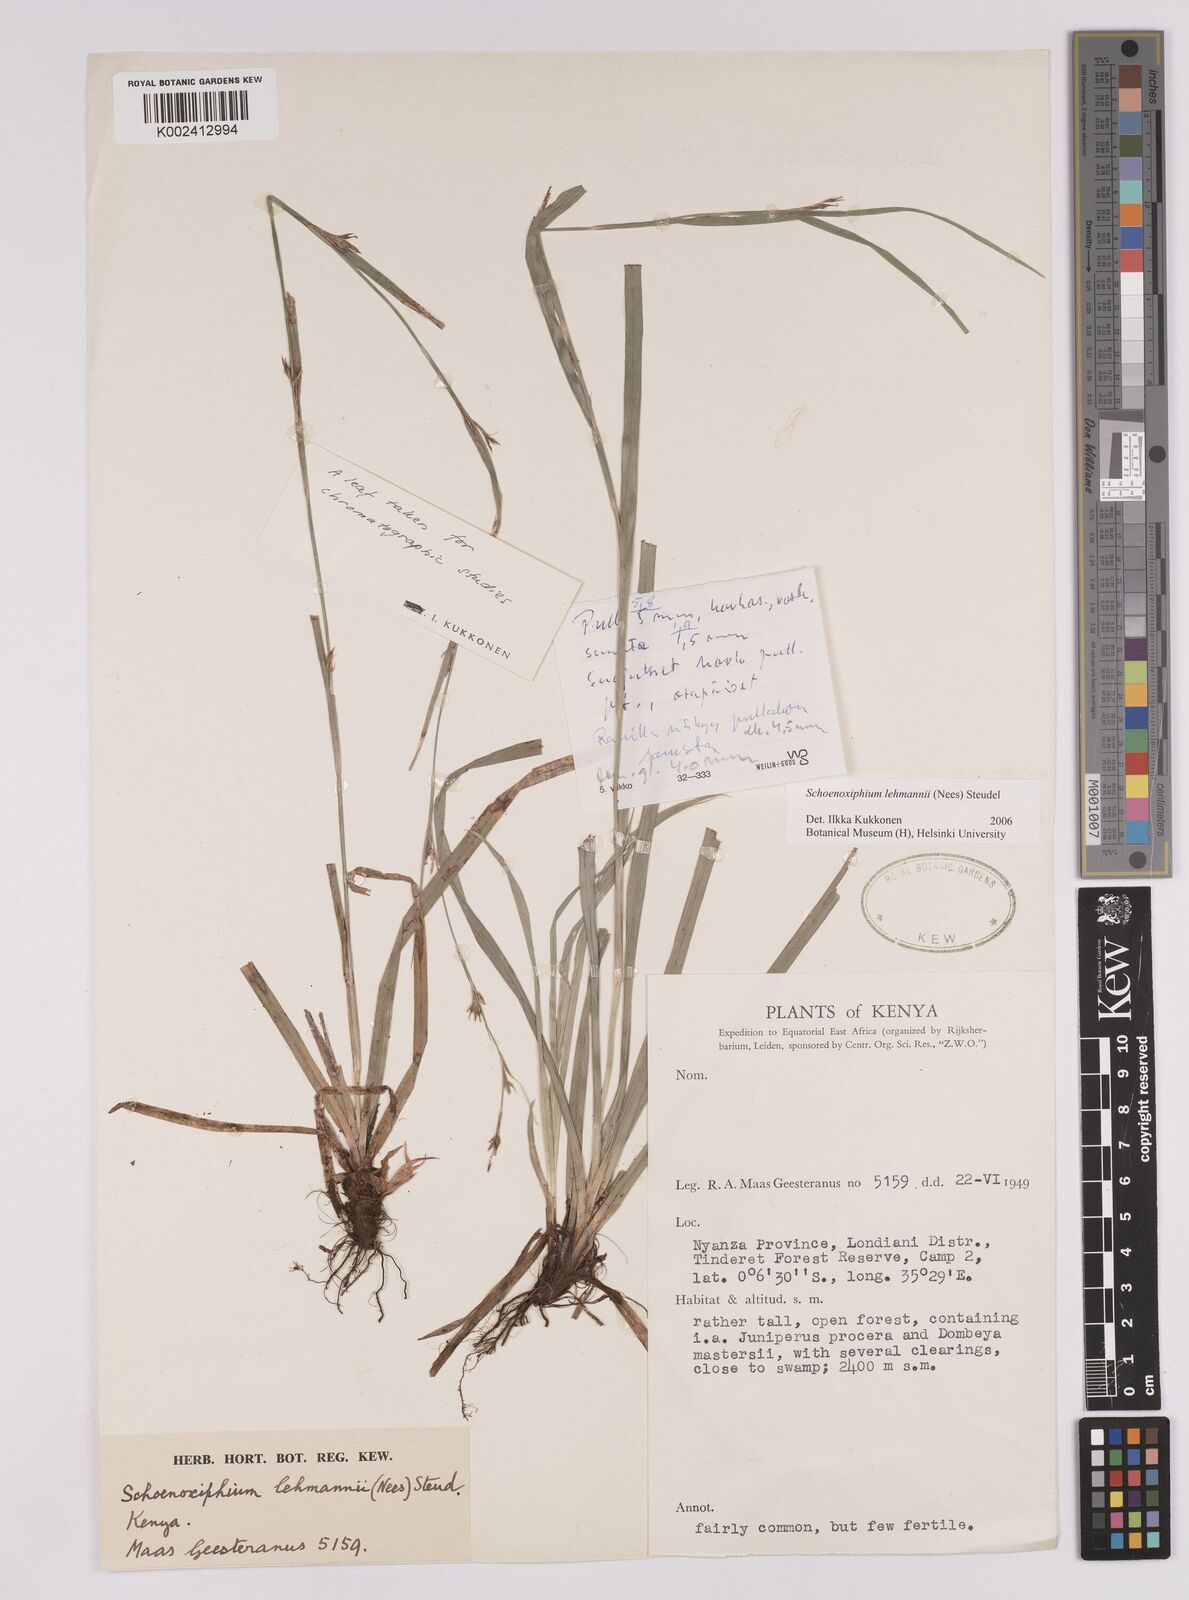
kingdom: Plantae
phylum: Tracheophyta
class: Liliopsida
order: Poales
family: Cyperaceae
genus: Carex
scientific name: Carex uhligii
